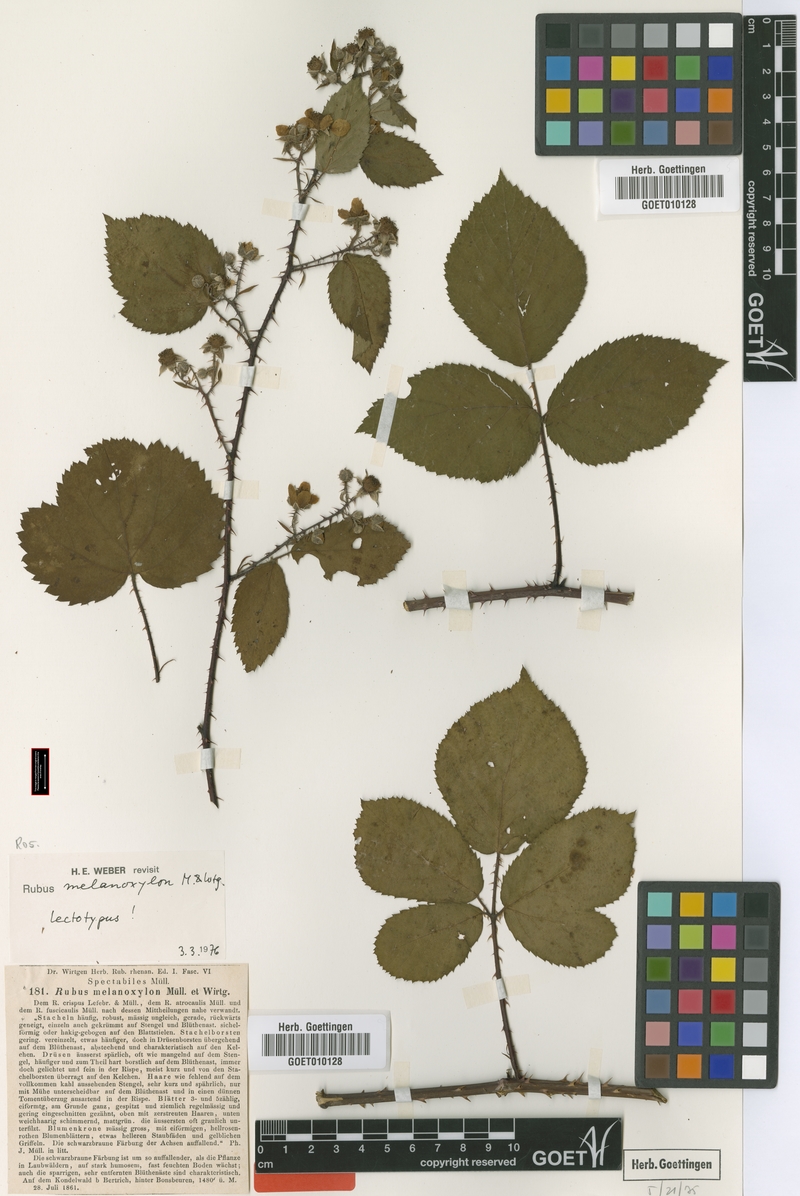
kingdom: Plantae
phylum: Tracheophyta
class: Magnoliopsida
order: Rosales
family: Rosaceae
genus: Rubus
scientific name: Rubus melanoxylon
